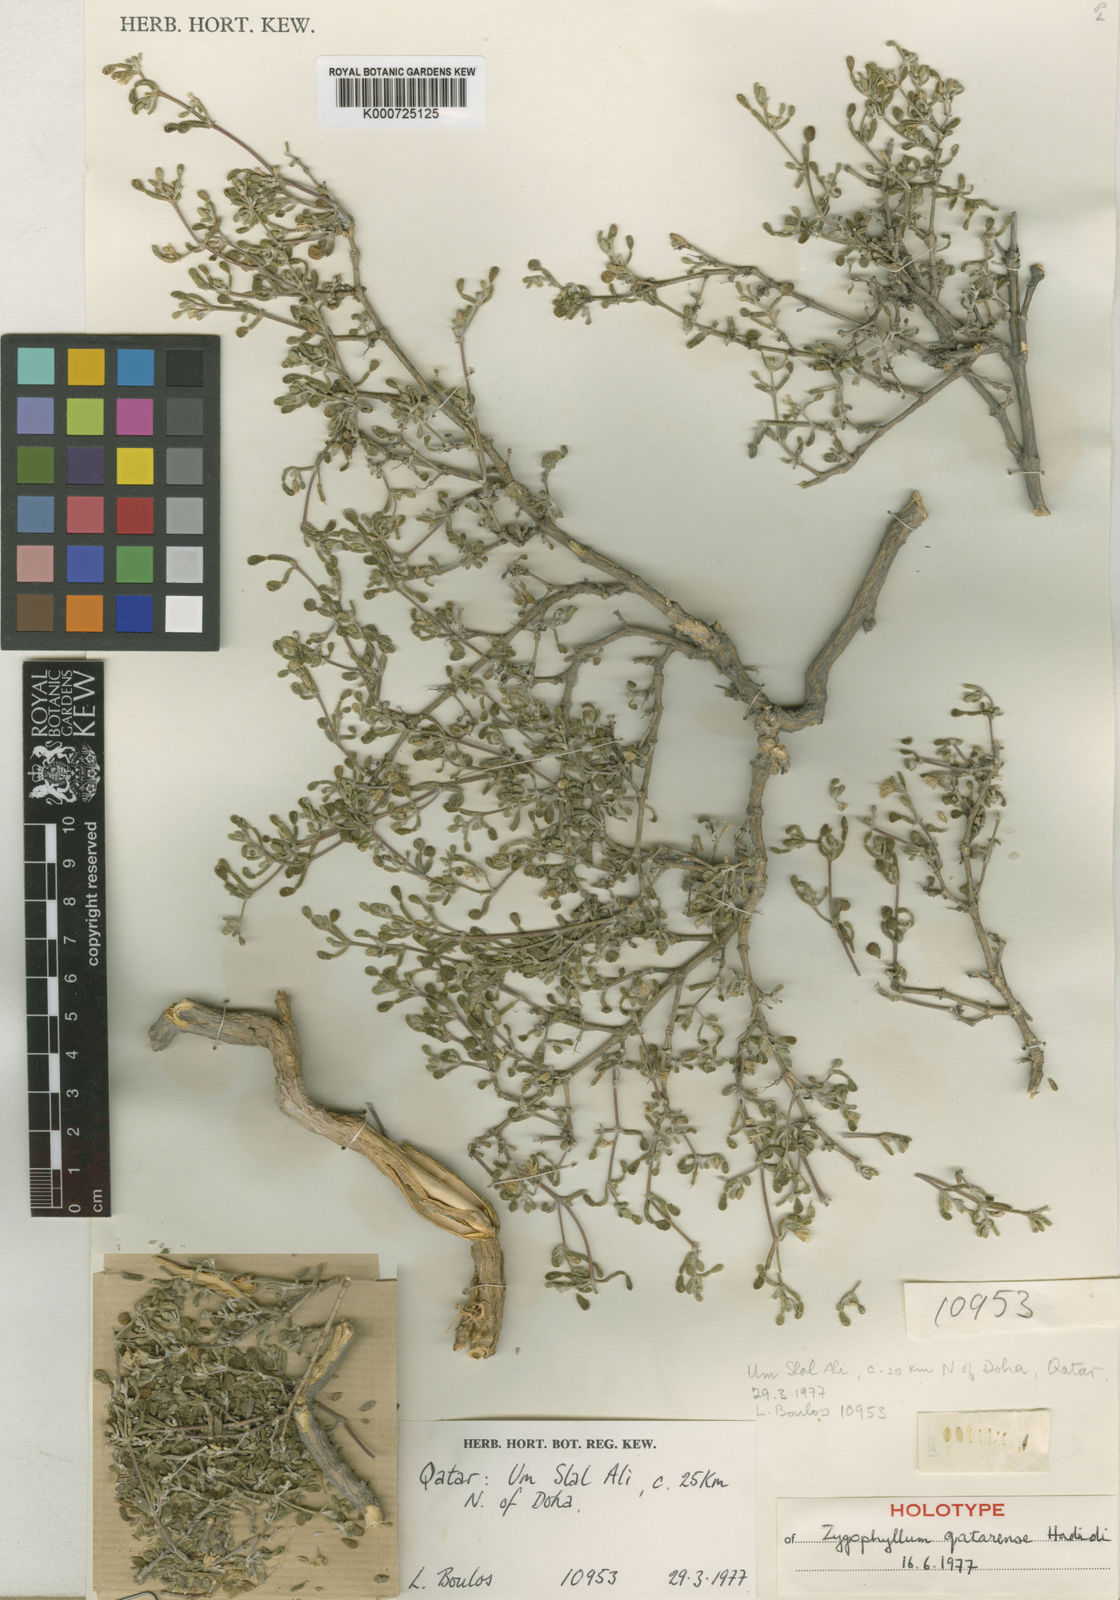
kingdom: Plantae
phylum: Tracheophyta
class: Magnoliopsida
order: Zygophyllales
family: Zygophyllaceae
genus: Tetraena
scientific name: Tetraena hamiensis
